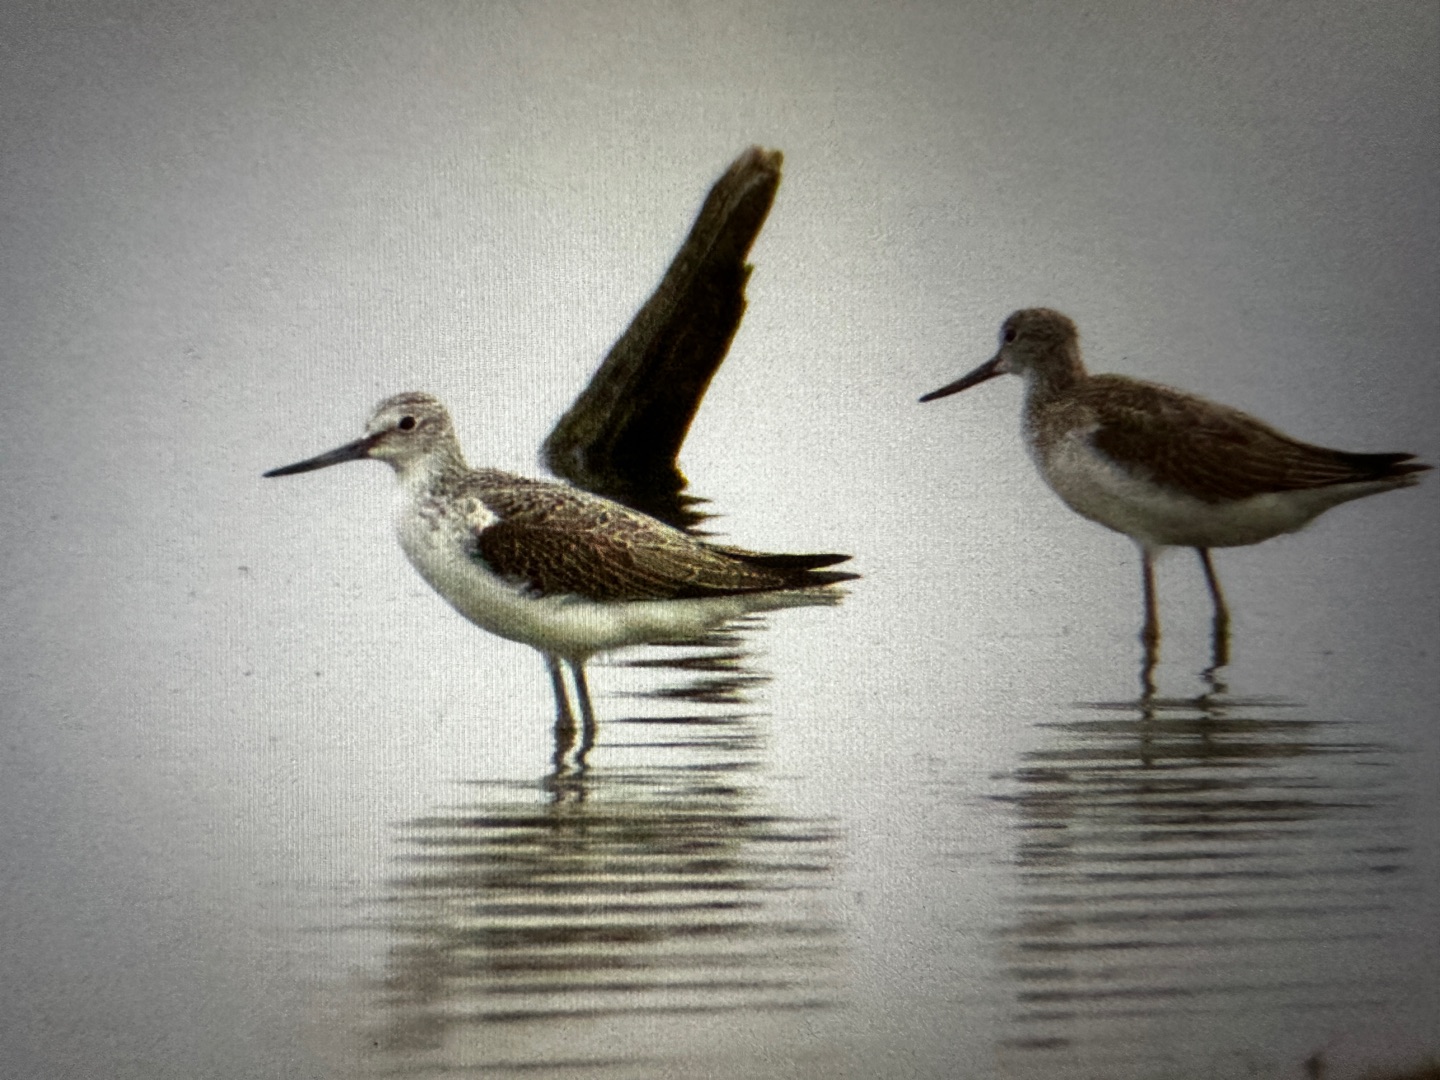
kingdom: Animalia
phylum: Chordata
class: Aves
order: Charadriiformes
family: Scolopacidae
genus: Tringa
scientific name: Tringa nebularia
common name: Hvidklire
